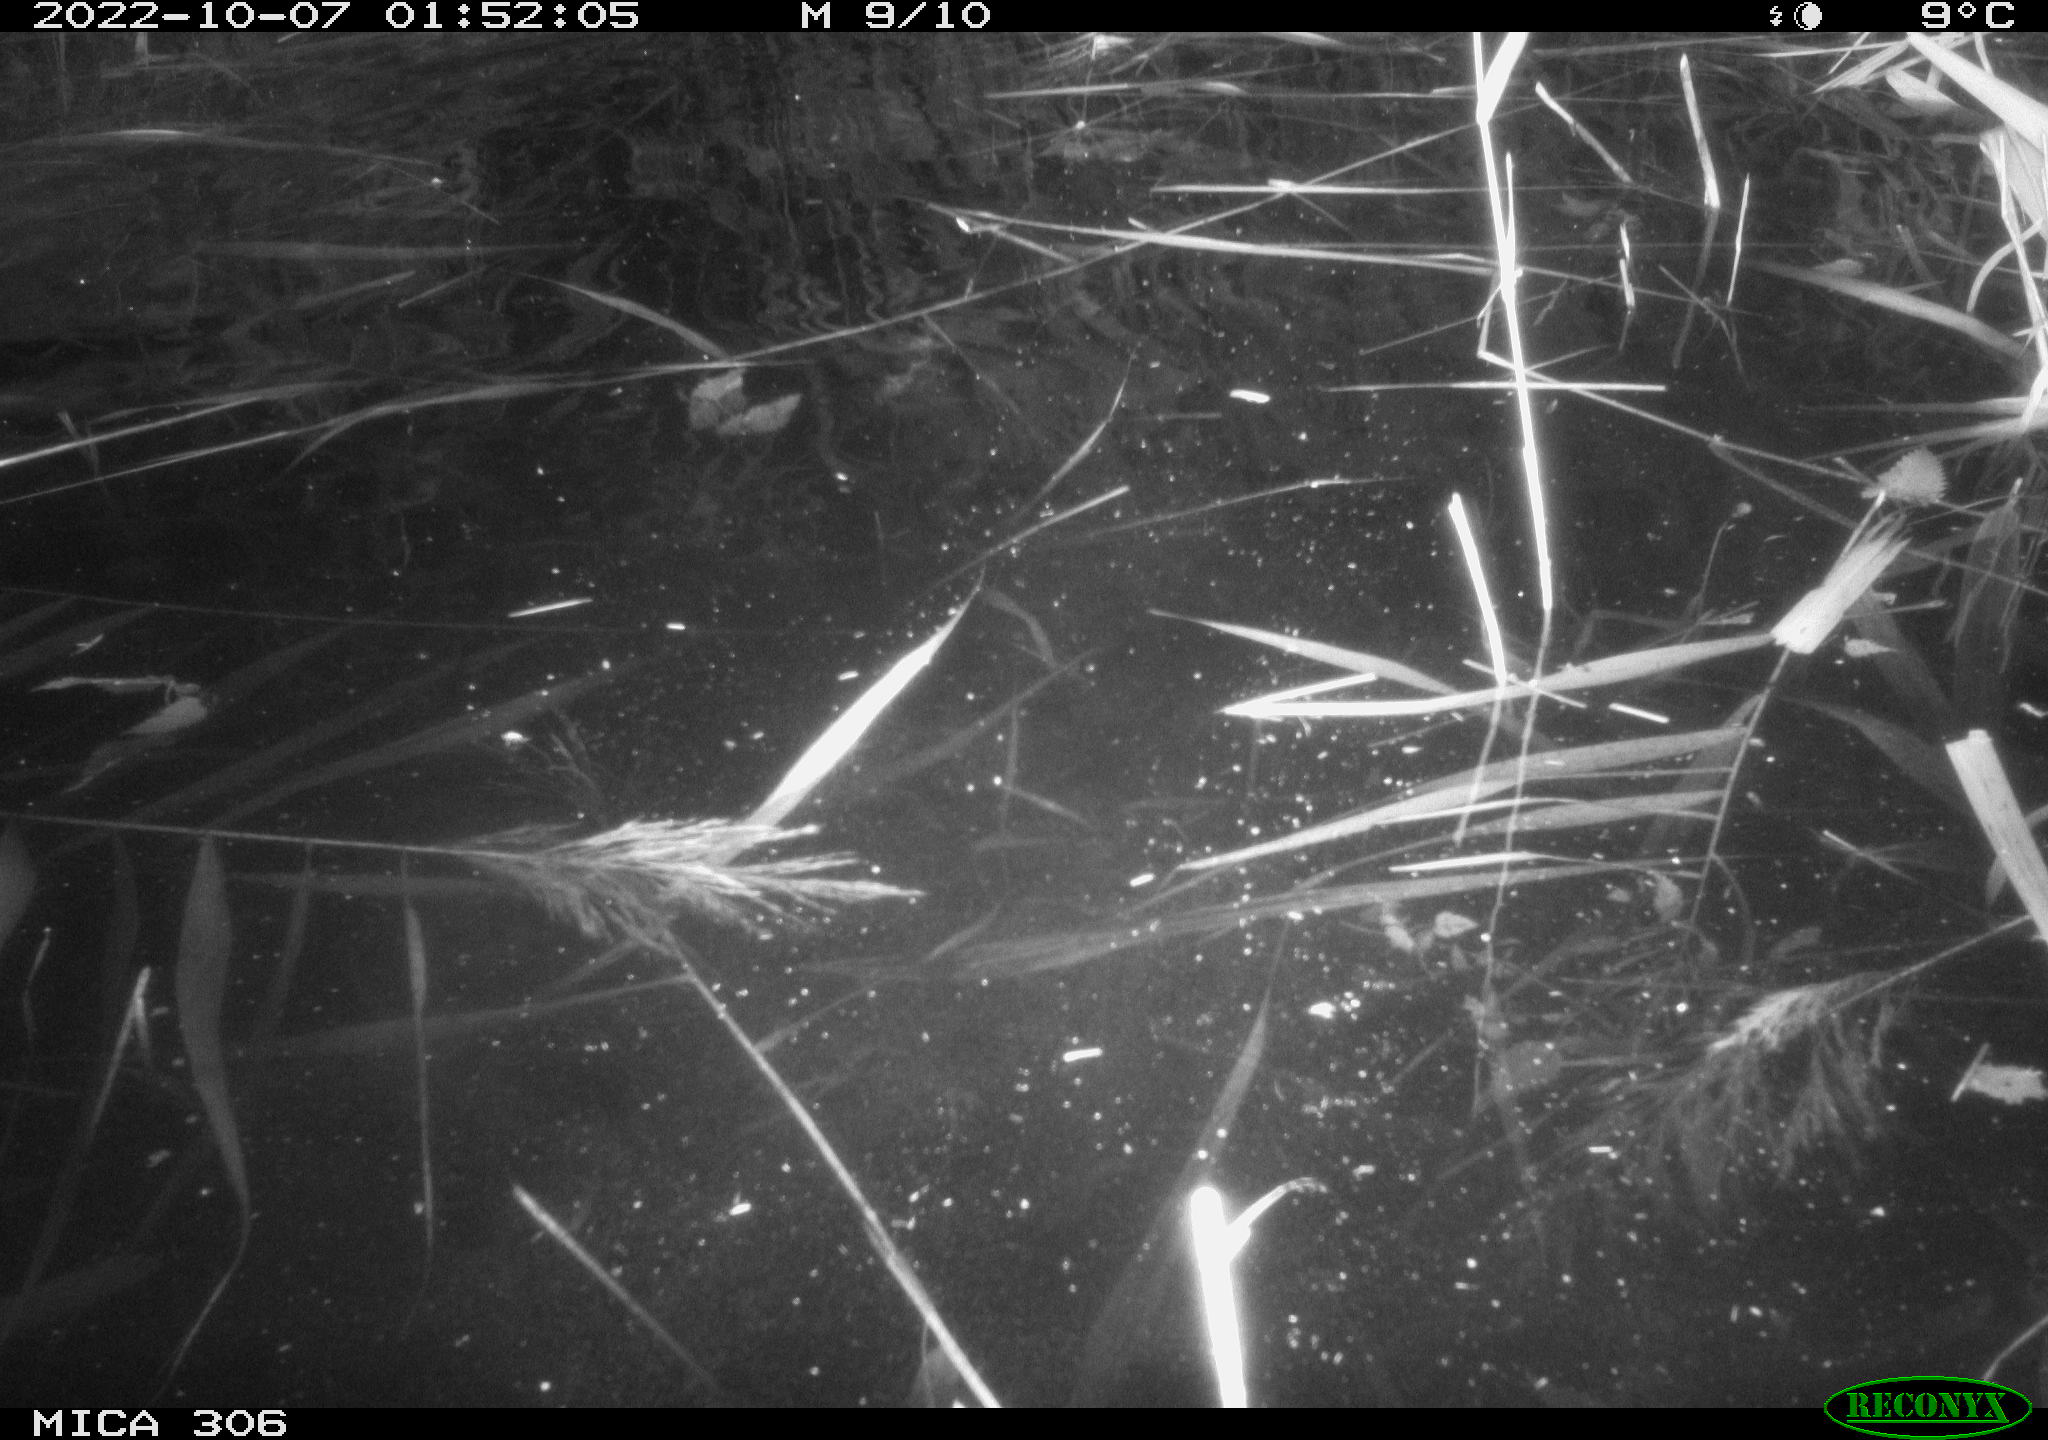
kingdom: Animalia
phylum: Chordata
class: Mammalia
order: Rodentia
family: Muridae
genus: Rattus
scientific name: Rattus norvegicus
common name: Brown rat
